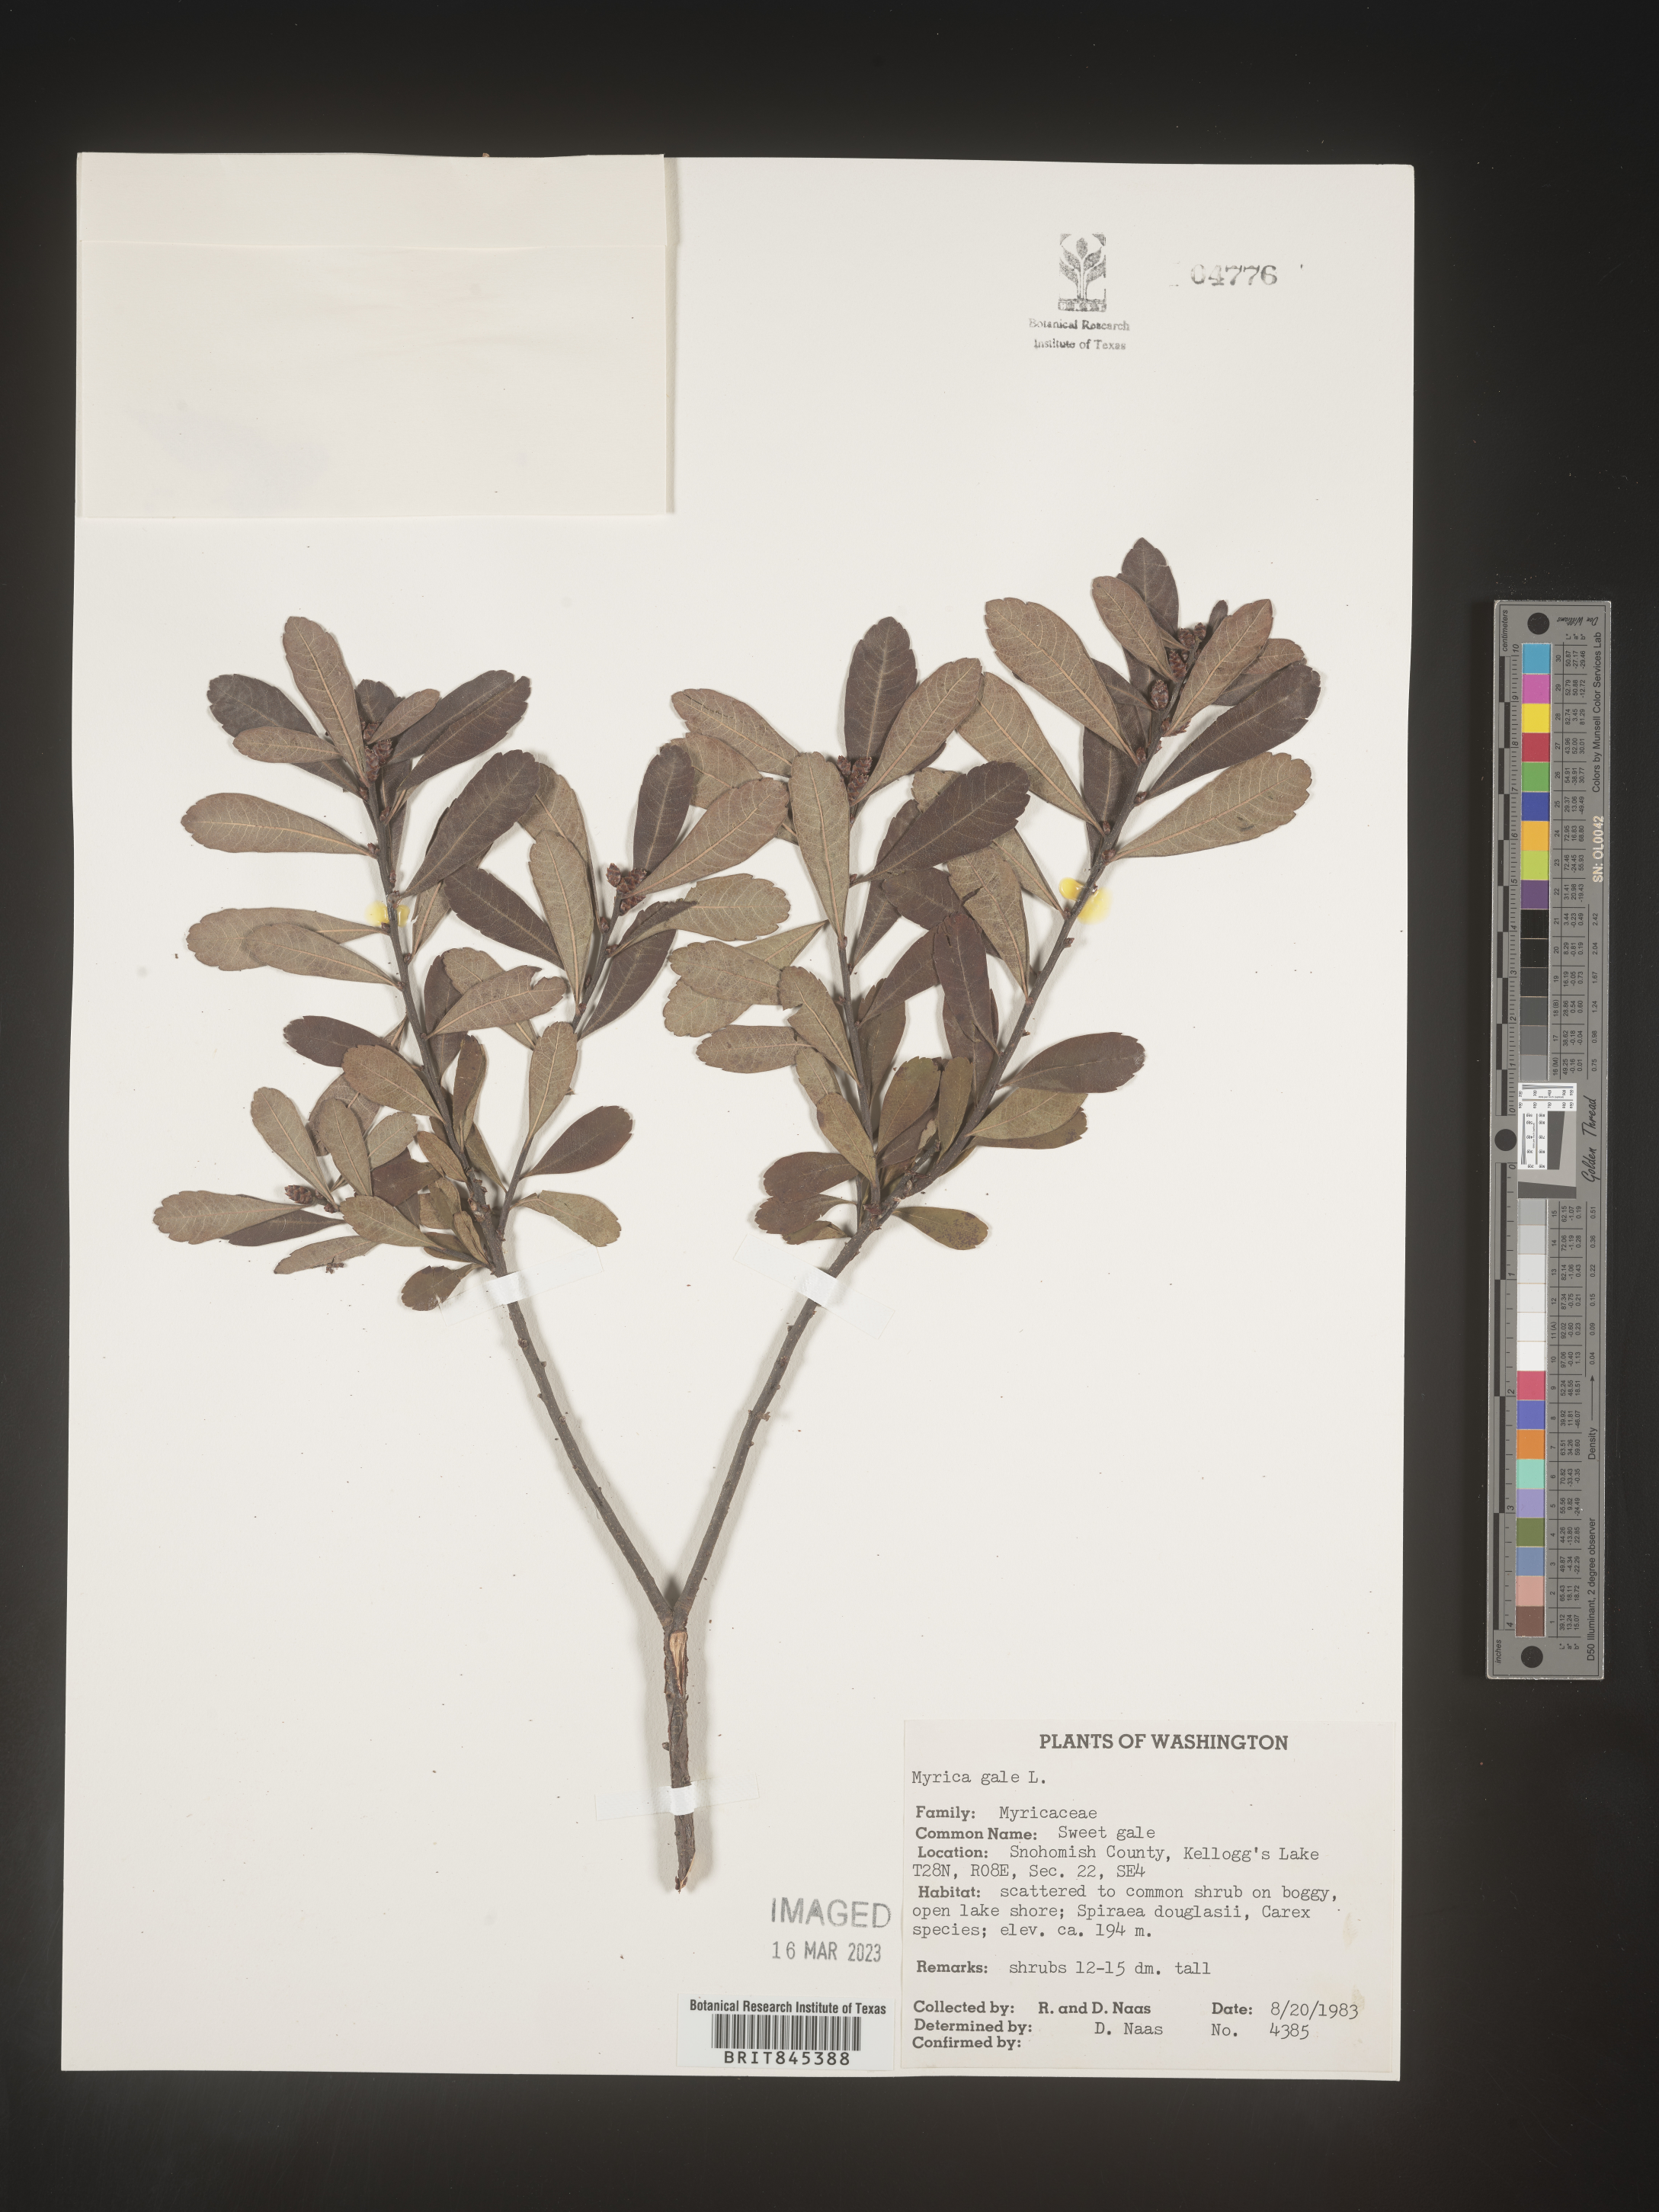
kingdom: Plantae
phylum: Tracheophyta
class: Magnoliopsida
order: Fagales
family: Myricaceae
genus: Morella
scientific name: Morella cerifera
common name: Wax myrtle
